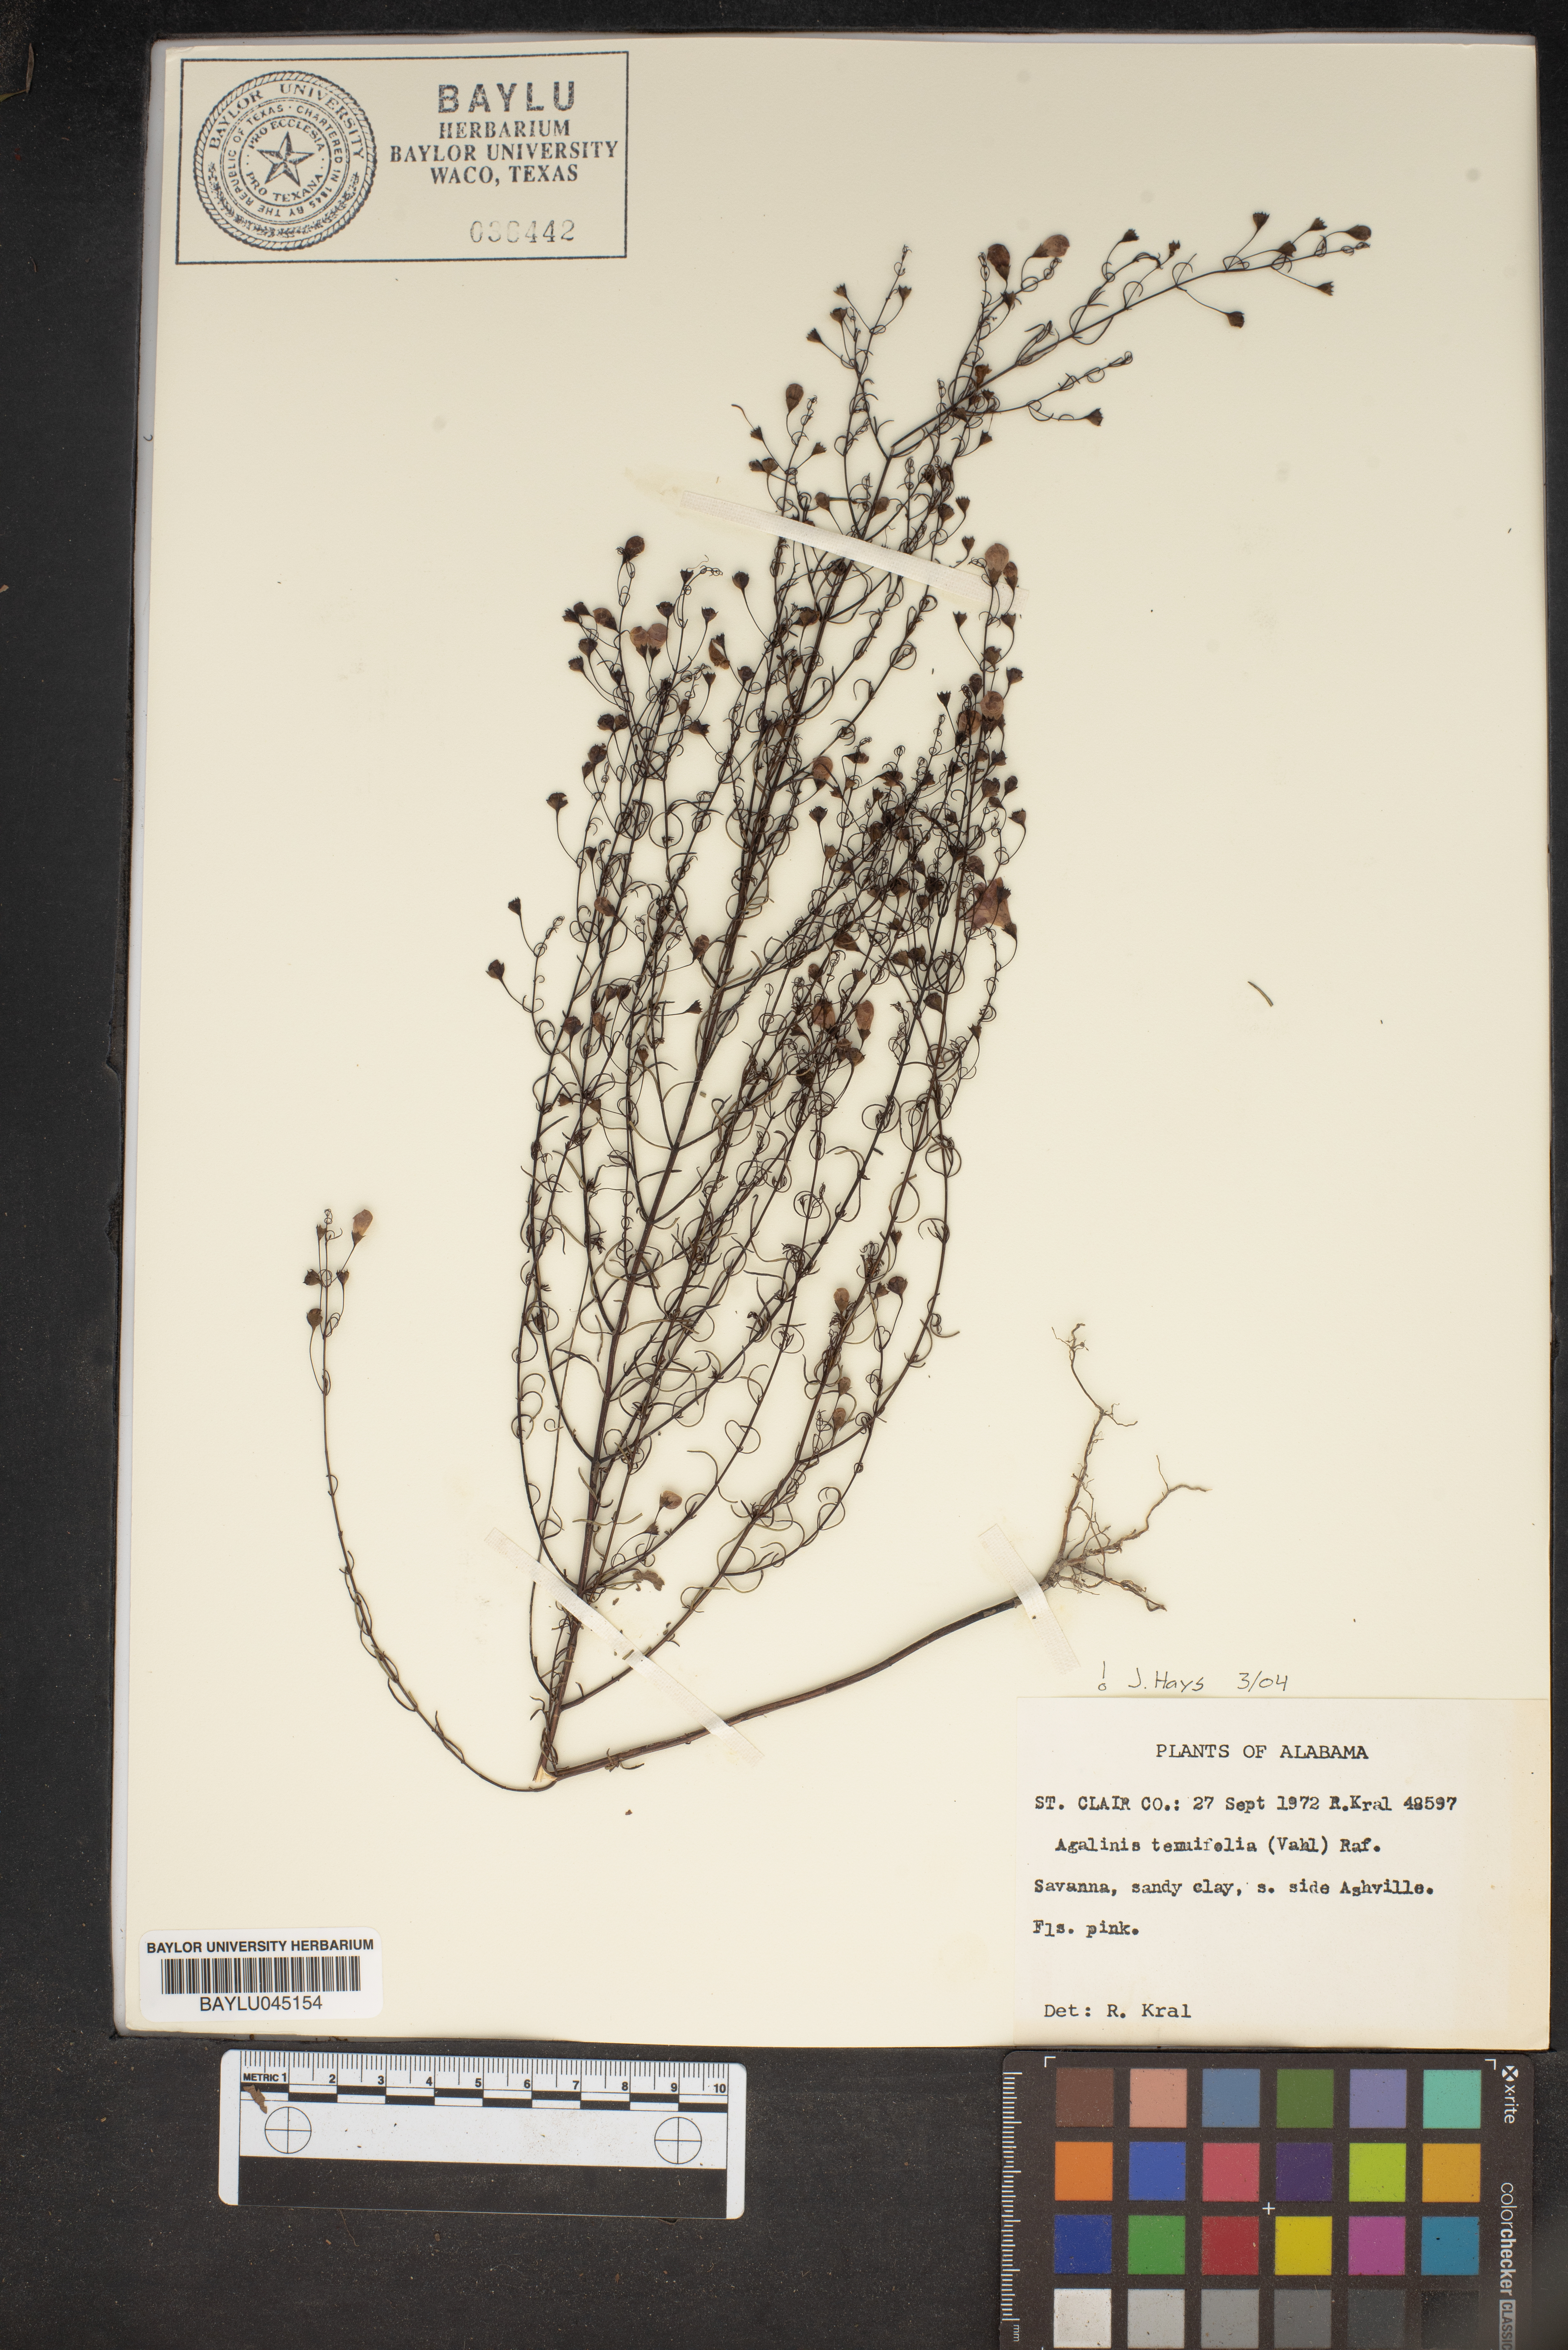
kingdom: Plantae
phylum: Tracheophyta
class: Magnoliopsida
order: Lamiales
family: Orobanchaceae
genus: Agalinis
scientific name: Agalinis tenuifolia
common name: Slender agalinis
